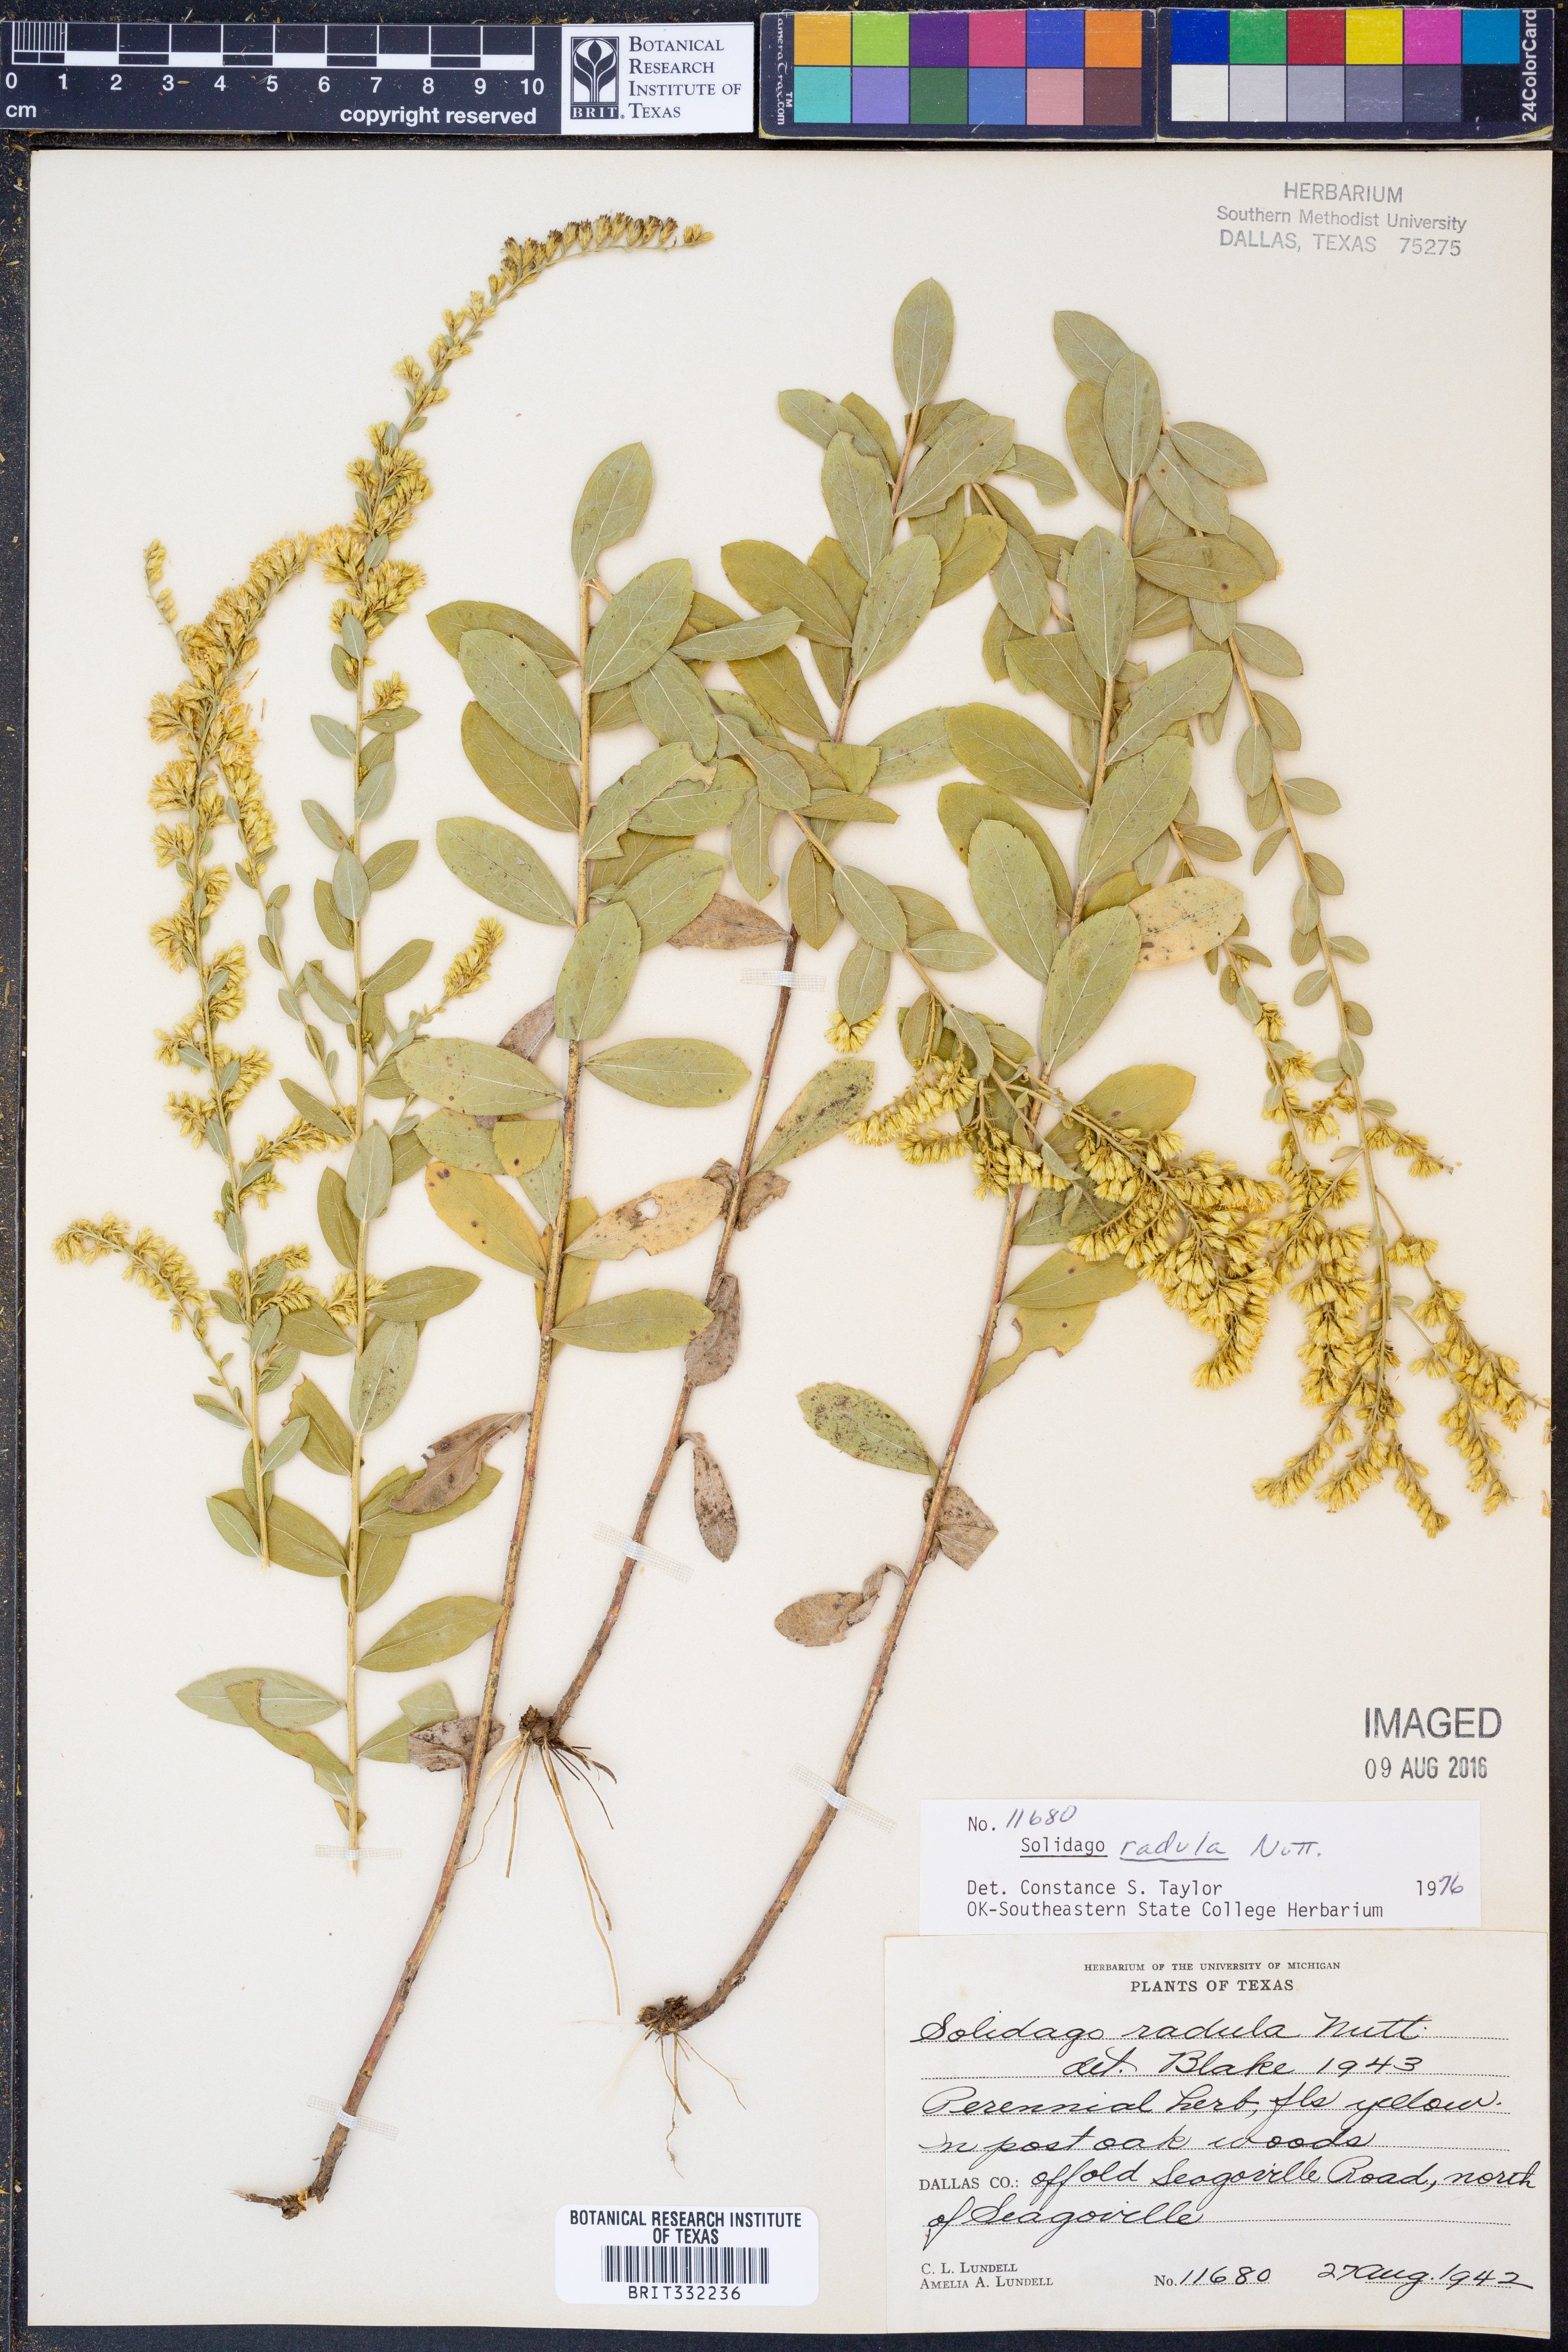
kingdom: Plantae
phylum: Tracheophyta
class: Magnoliopsida
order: Asterales
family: Asteraceae
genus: Solidago
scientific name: Solidago radula
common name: Western rough goldenrod
